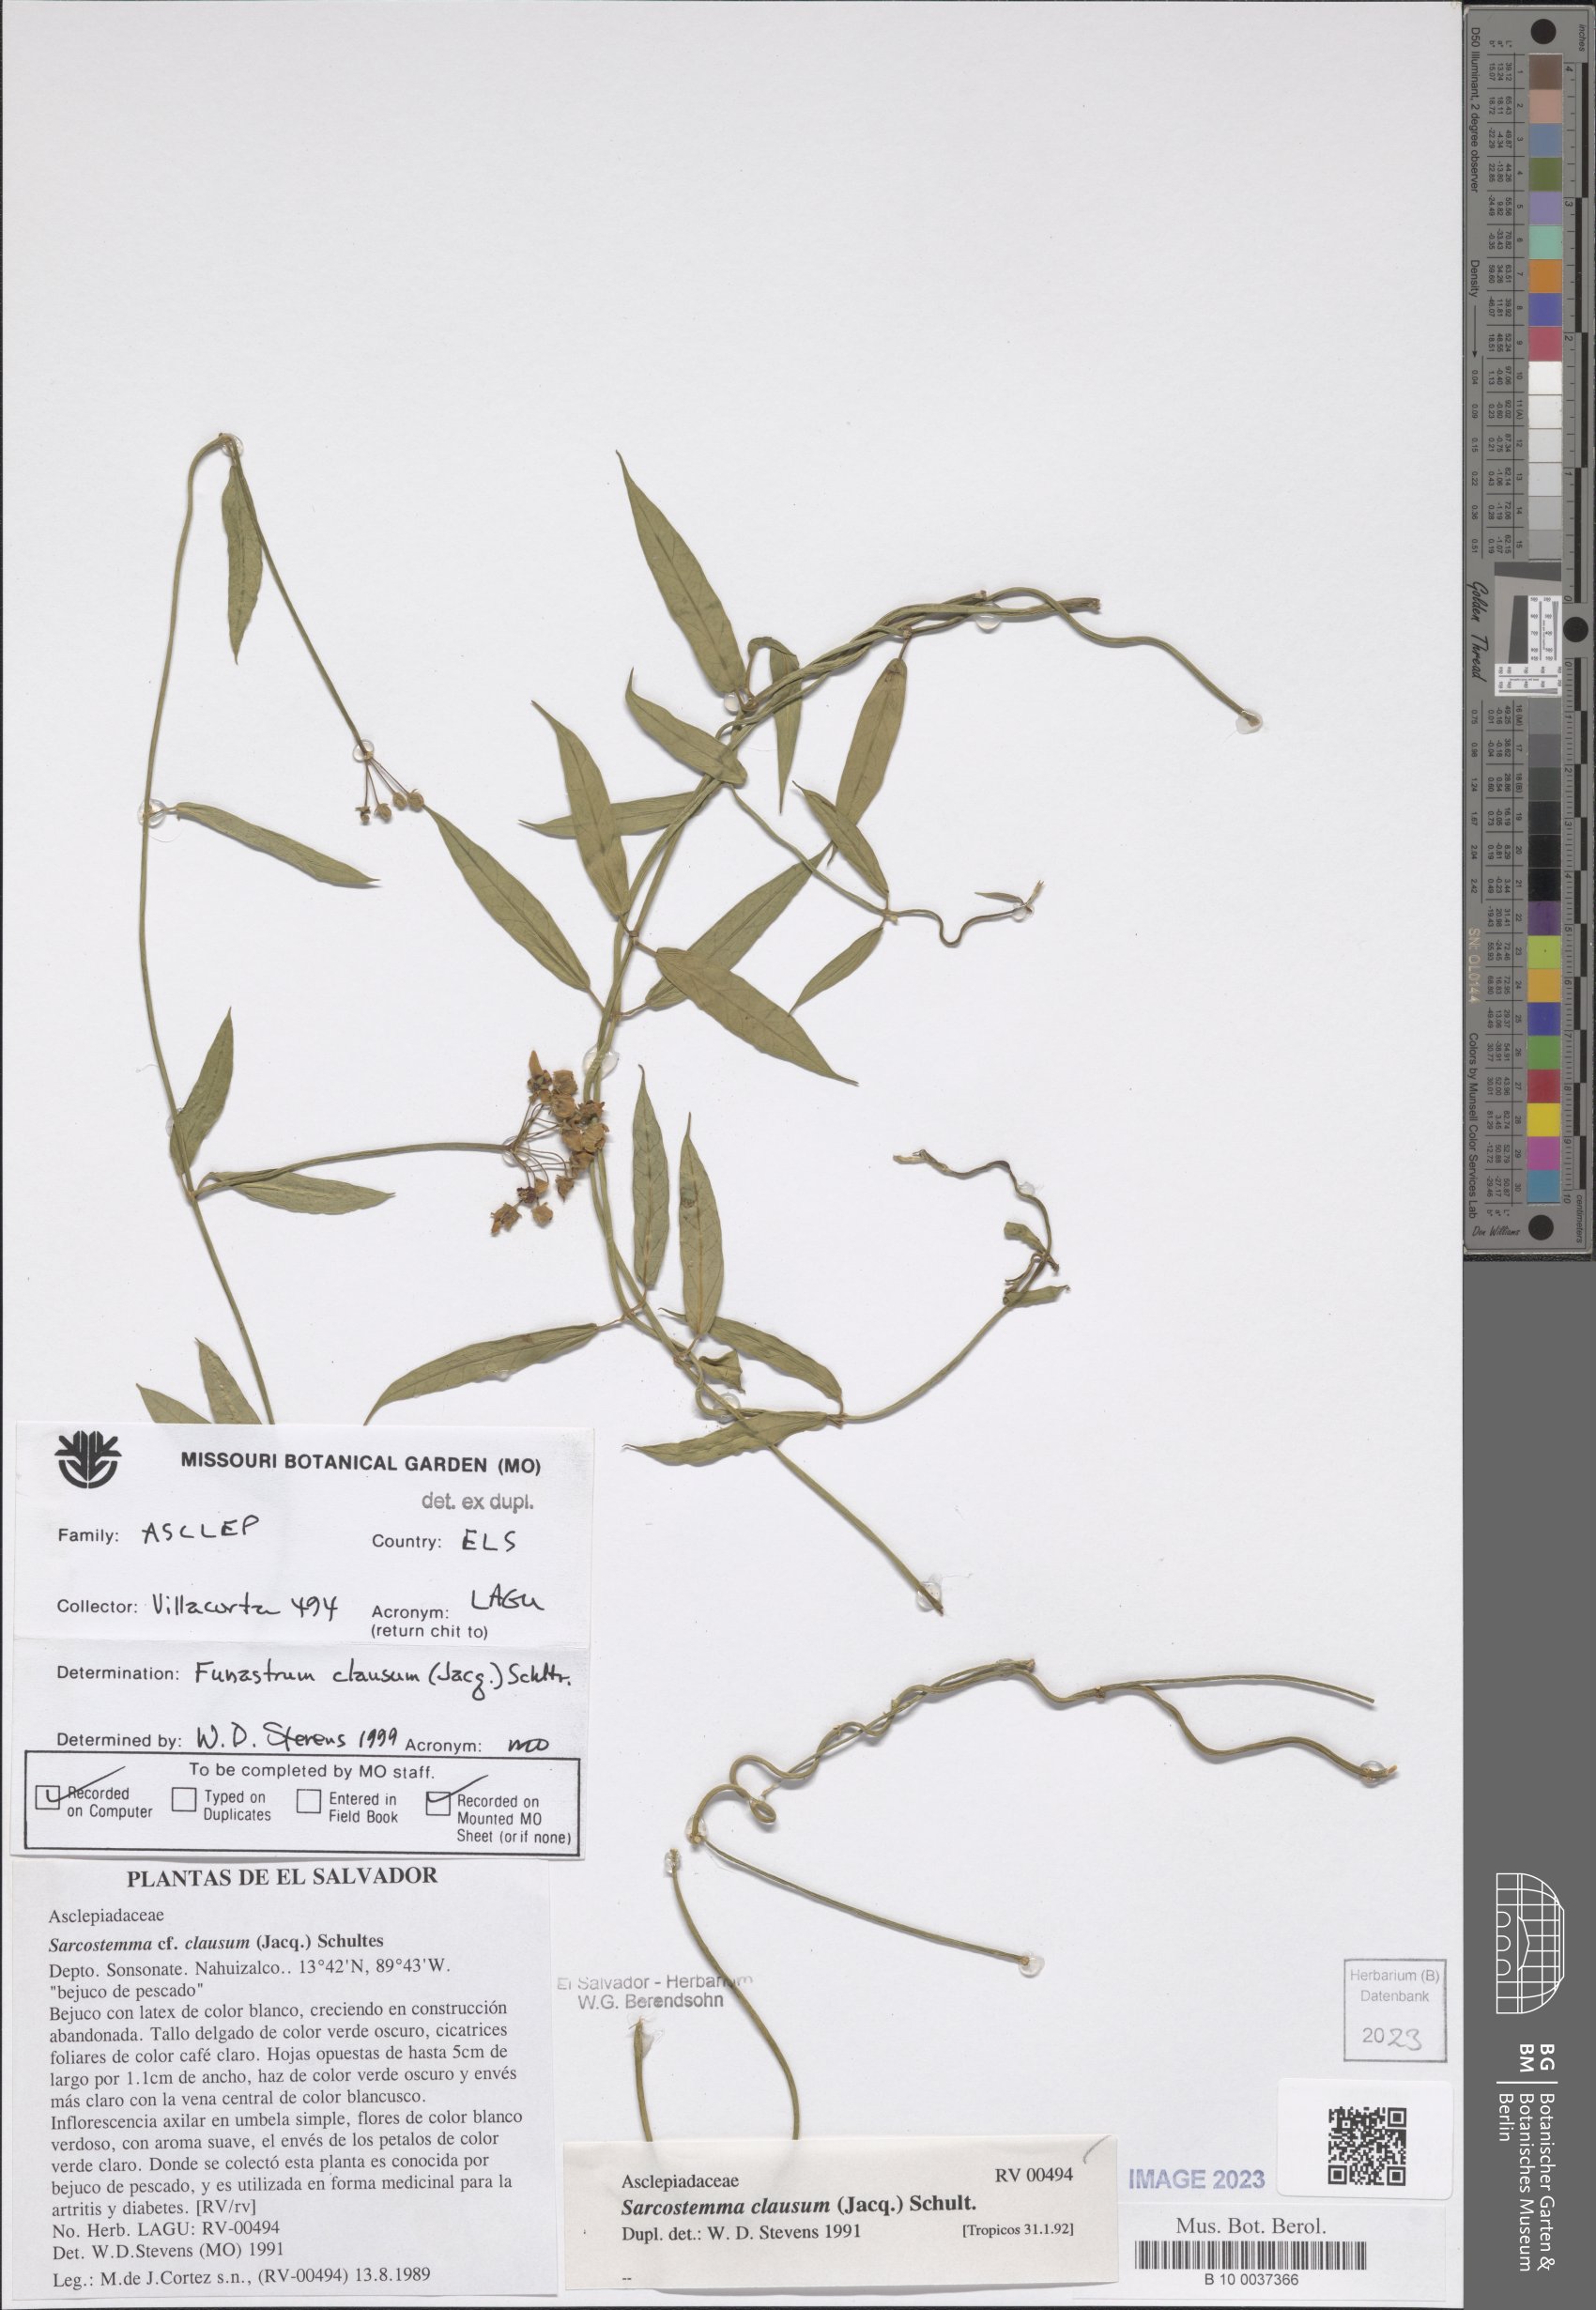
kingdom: Plantae
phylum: Tracheophyta
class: Magnoliopsida
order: Gentianales
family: Apocynaceae
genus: Funastrum
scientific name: Funastrum clausum
